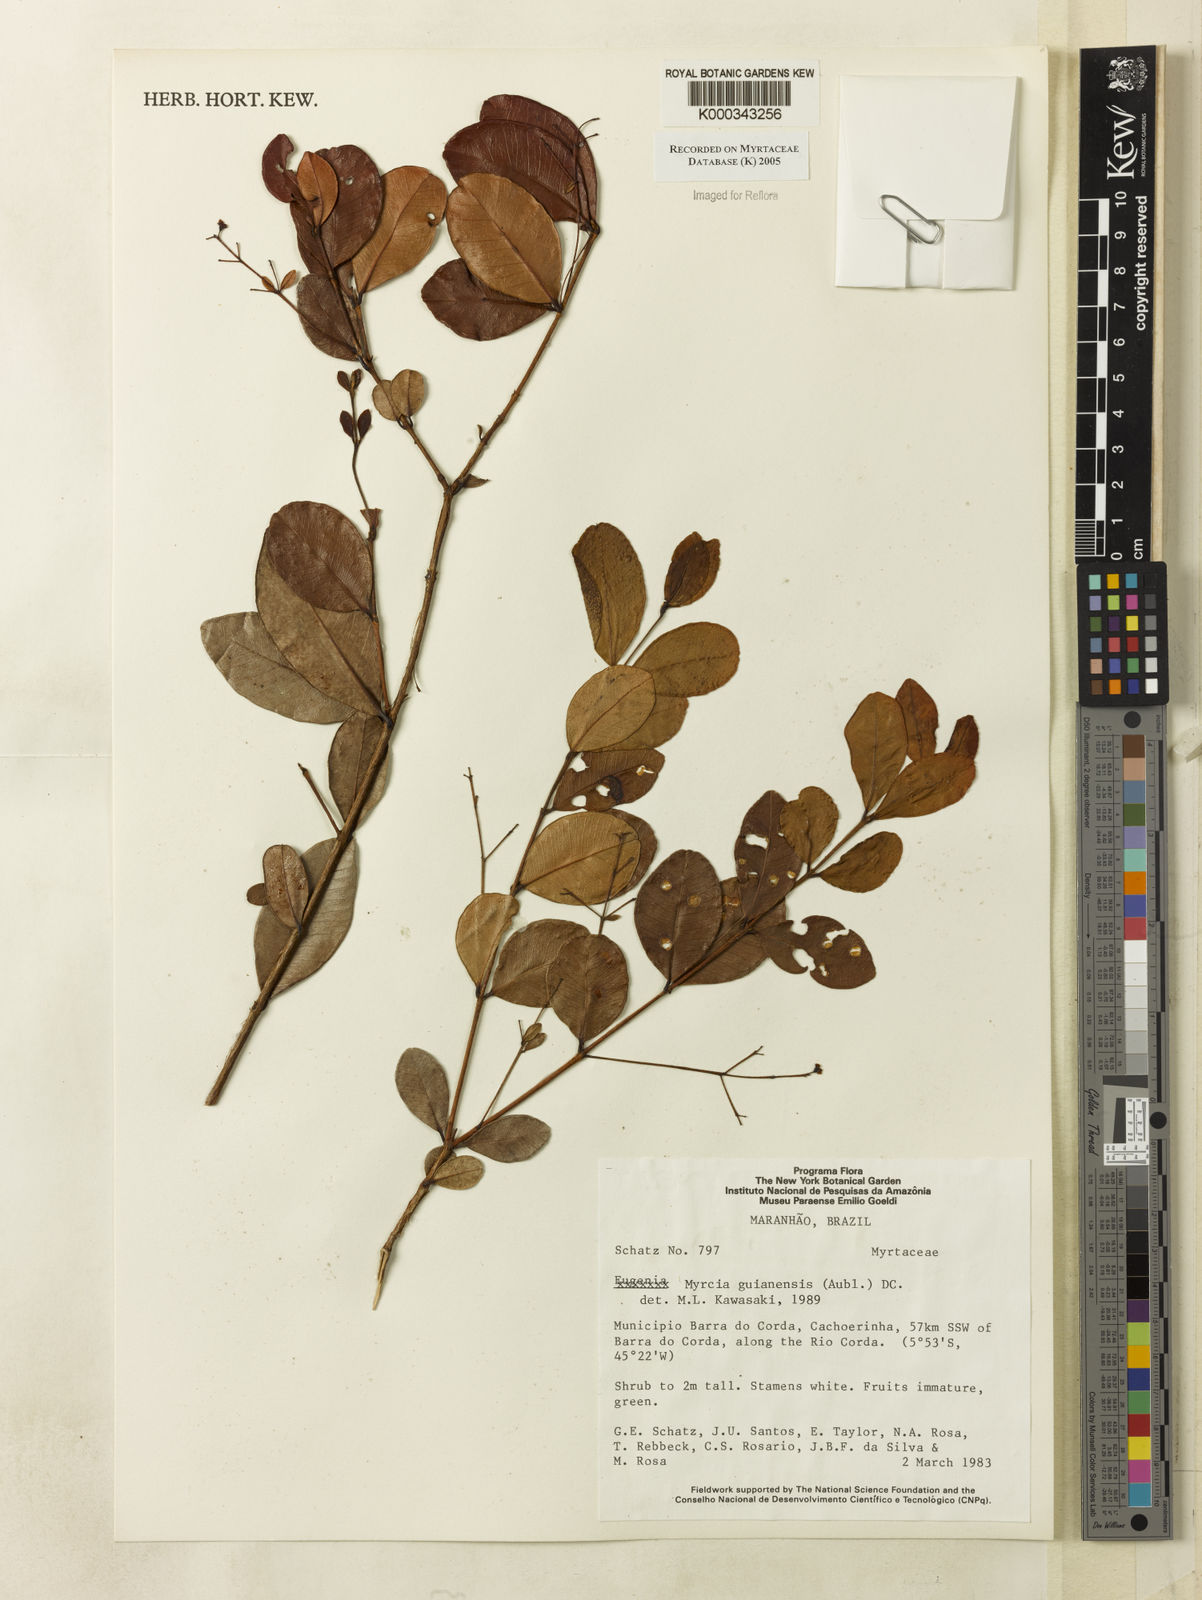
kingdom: Plantae
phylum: Tracheophyta
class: Magnoliopsida
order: Myrtales
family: Myrtaceae
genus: Myrcia
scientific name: Myrcia guianensis
